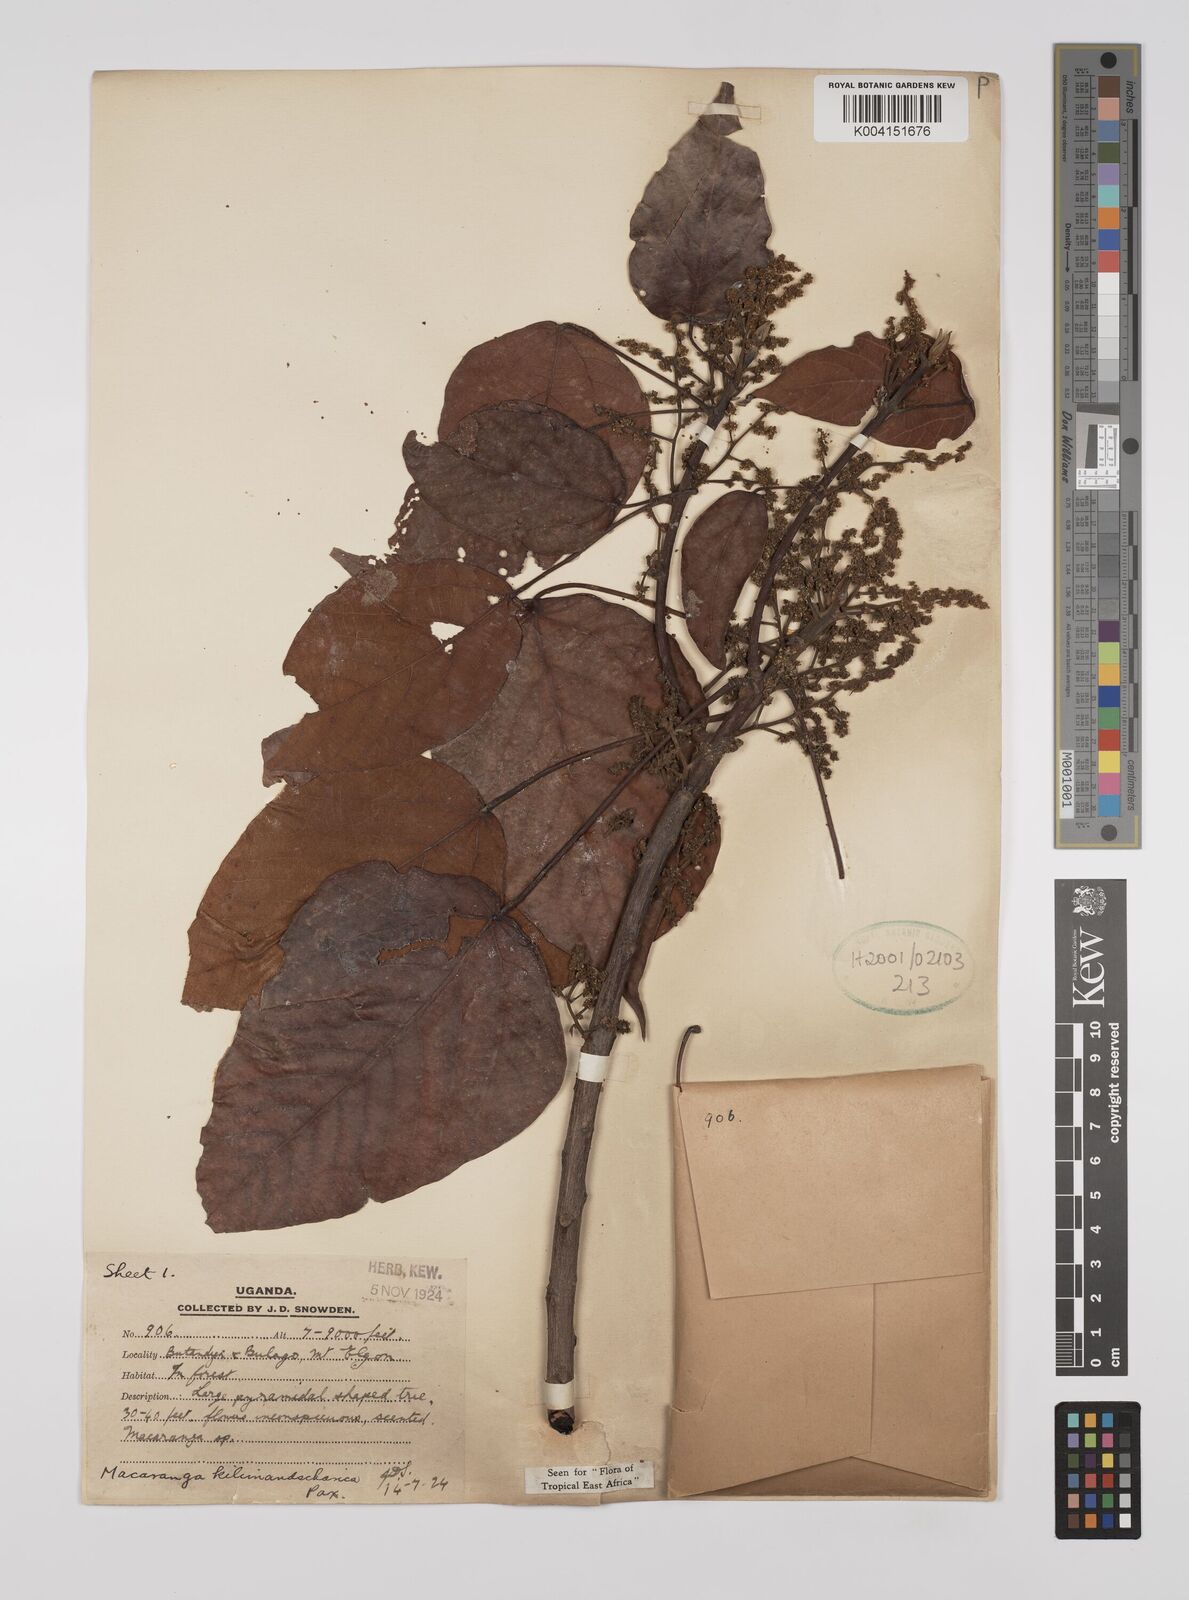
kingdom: Plantae
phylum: Tracheophyta
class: Magnoliopsida
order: Malpighiales
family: Euphorbiaceae
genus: Macaranga
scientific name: Macaranga kilimandscharica
